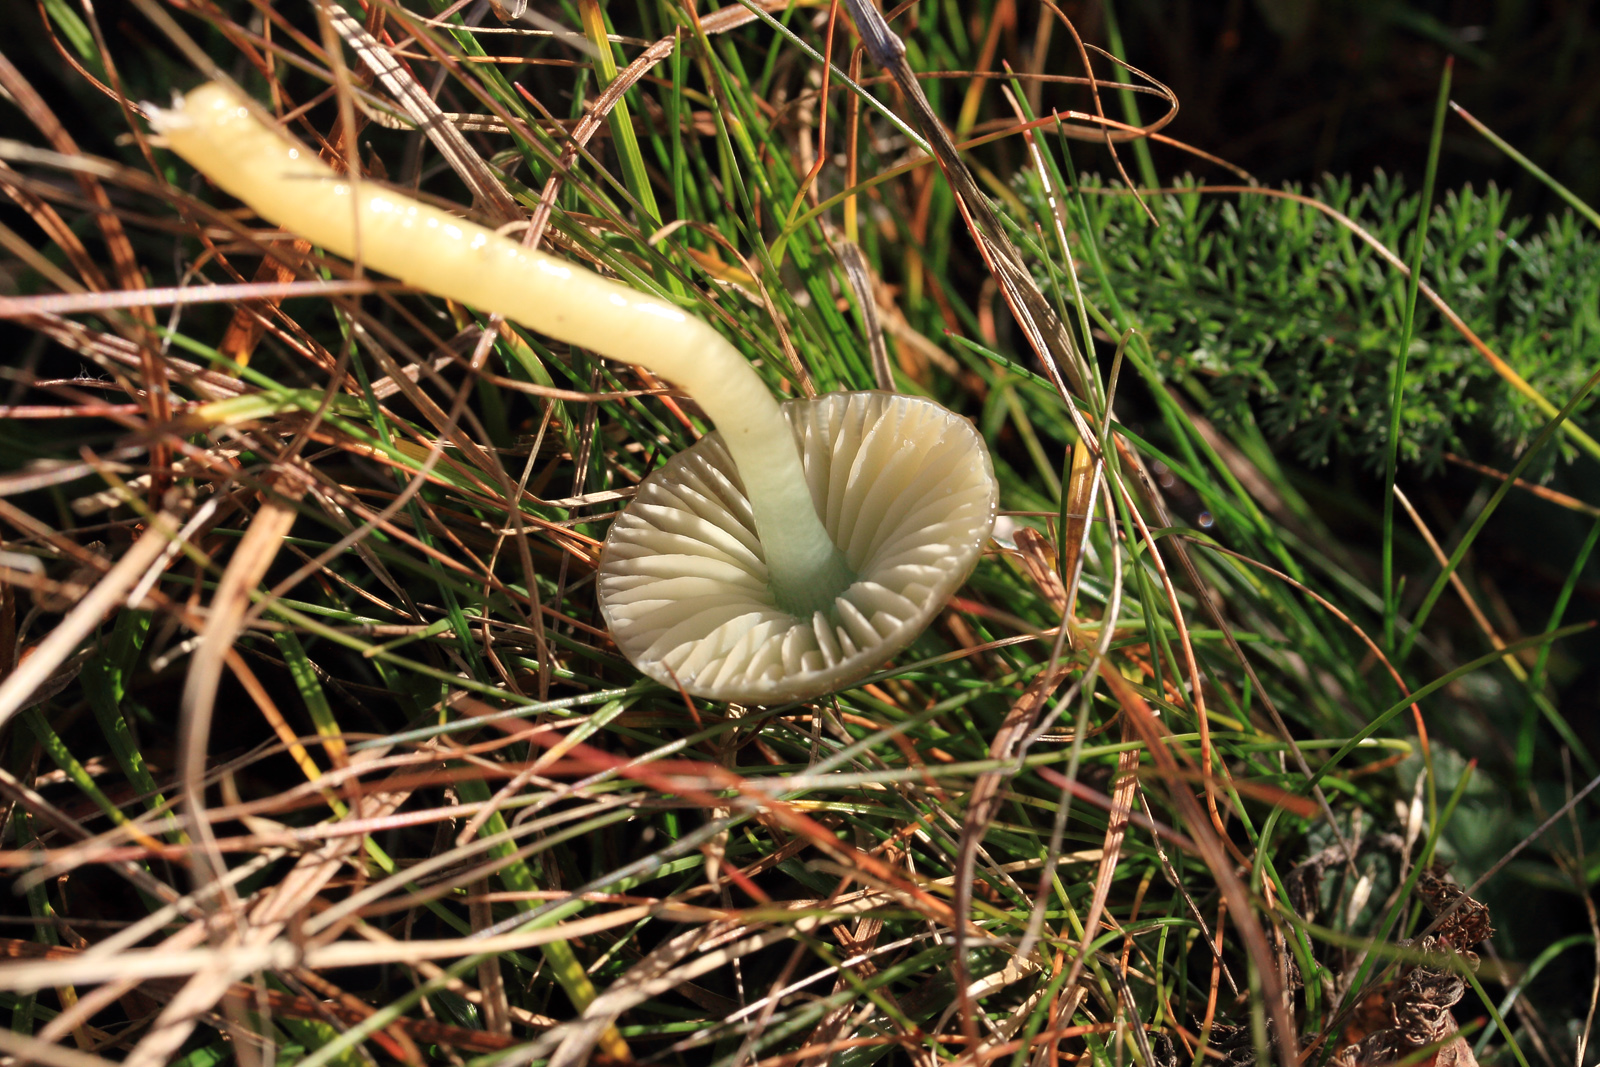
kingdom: Fungi
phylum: Basidiomycota
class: Agaricomycetes
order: Agaricales
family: Hygrophoraceae
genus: Gliophorus
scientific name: Gliophorus psittacinus
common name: papegøje-vokshat
